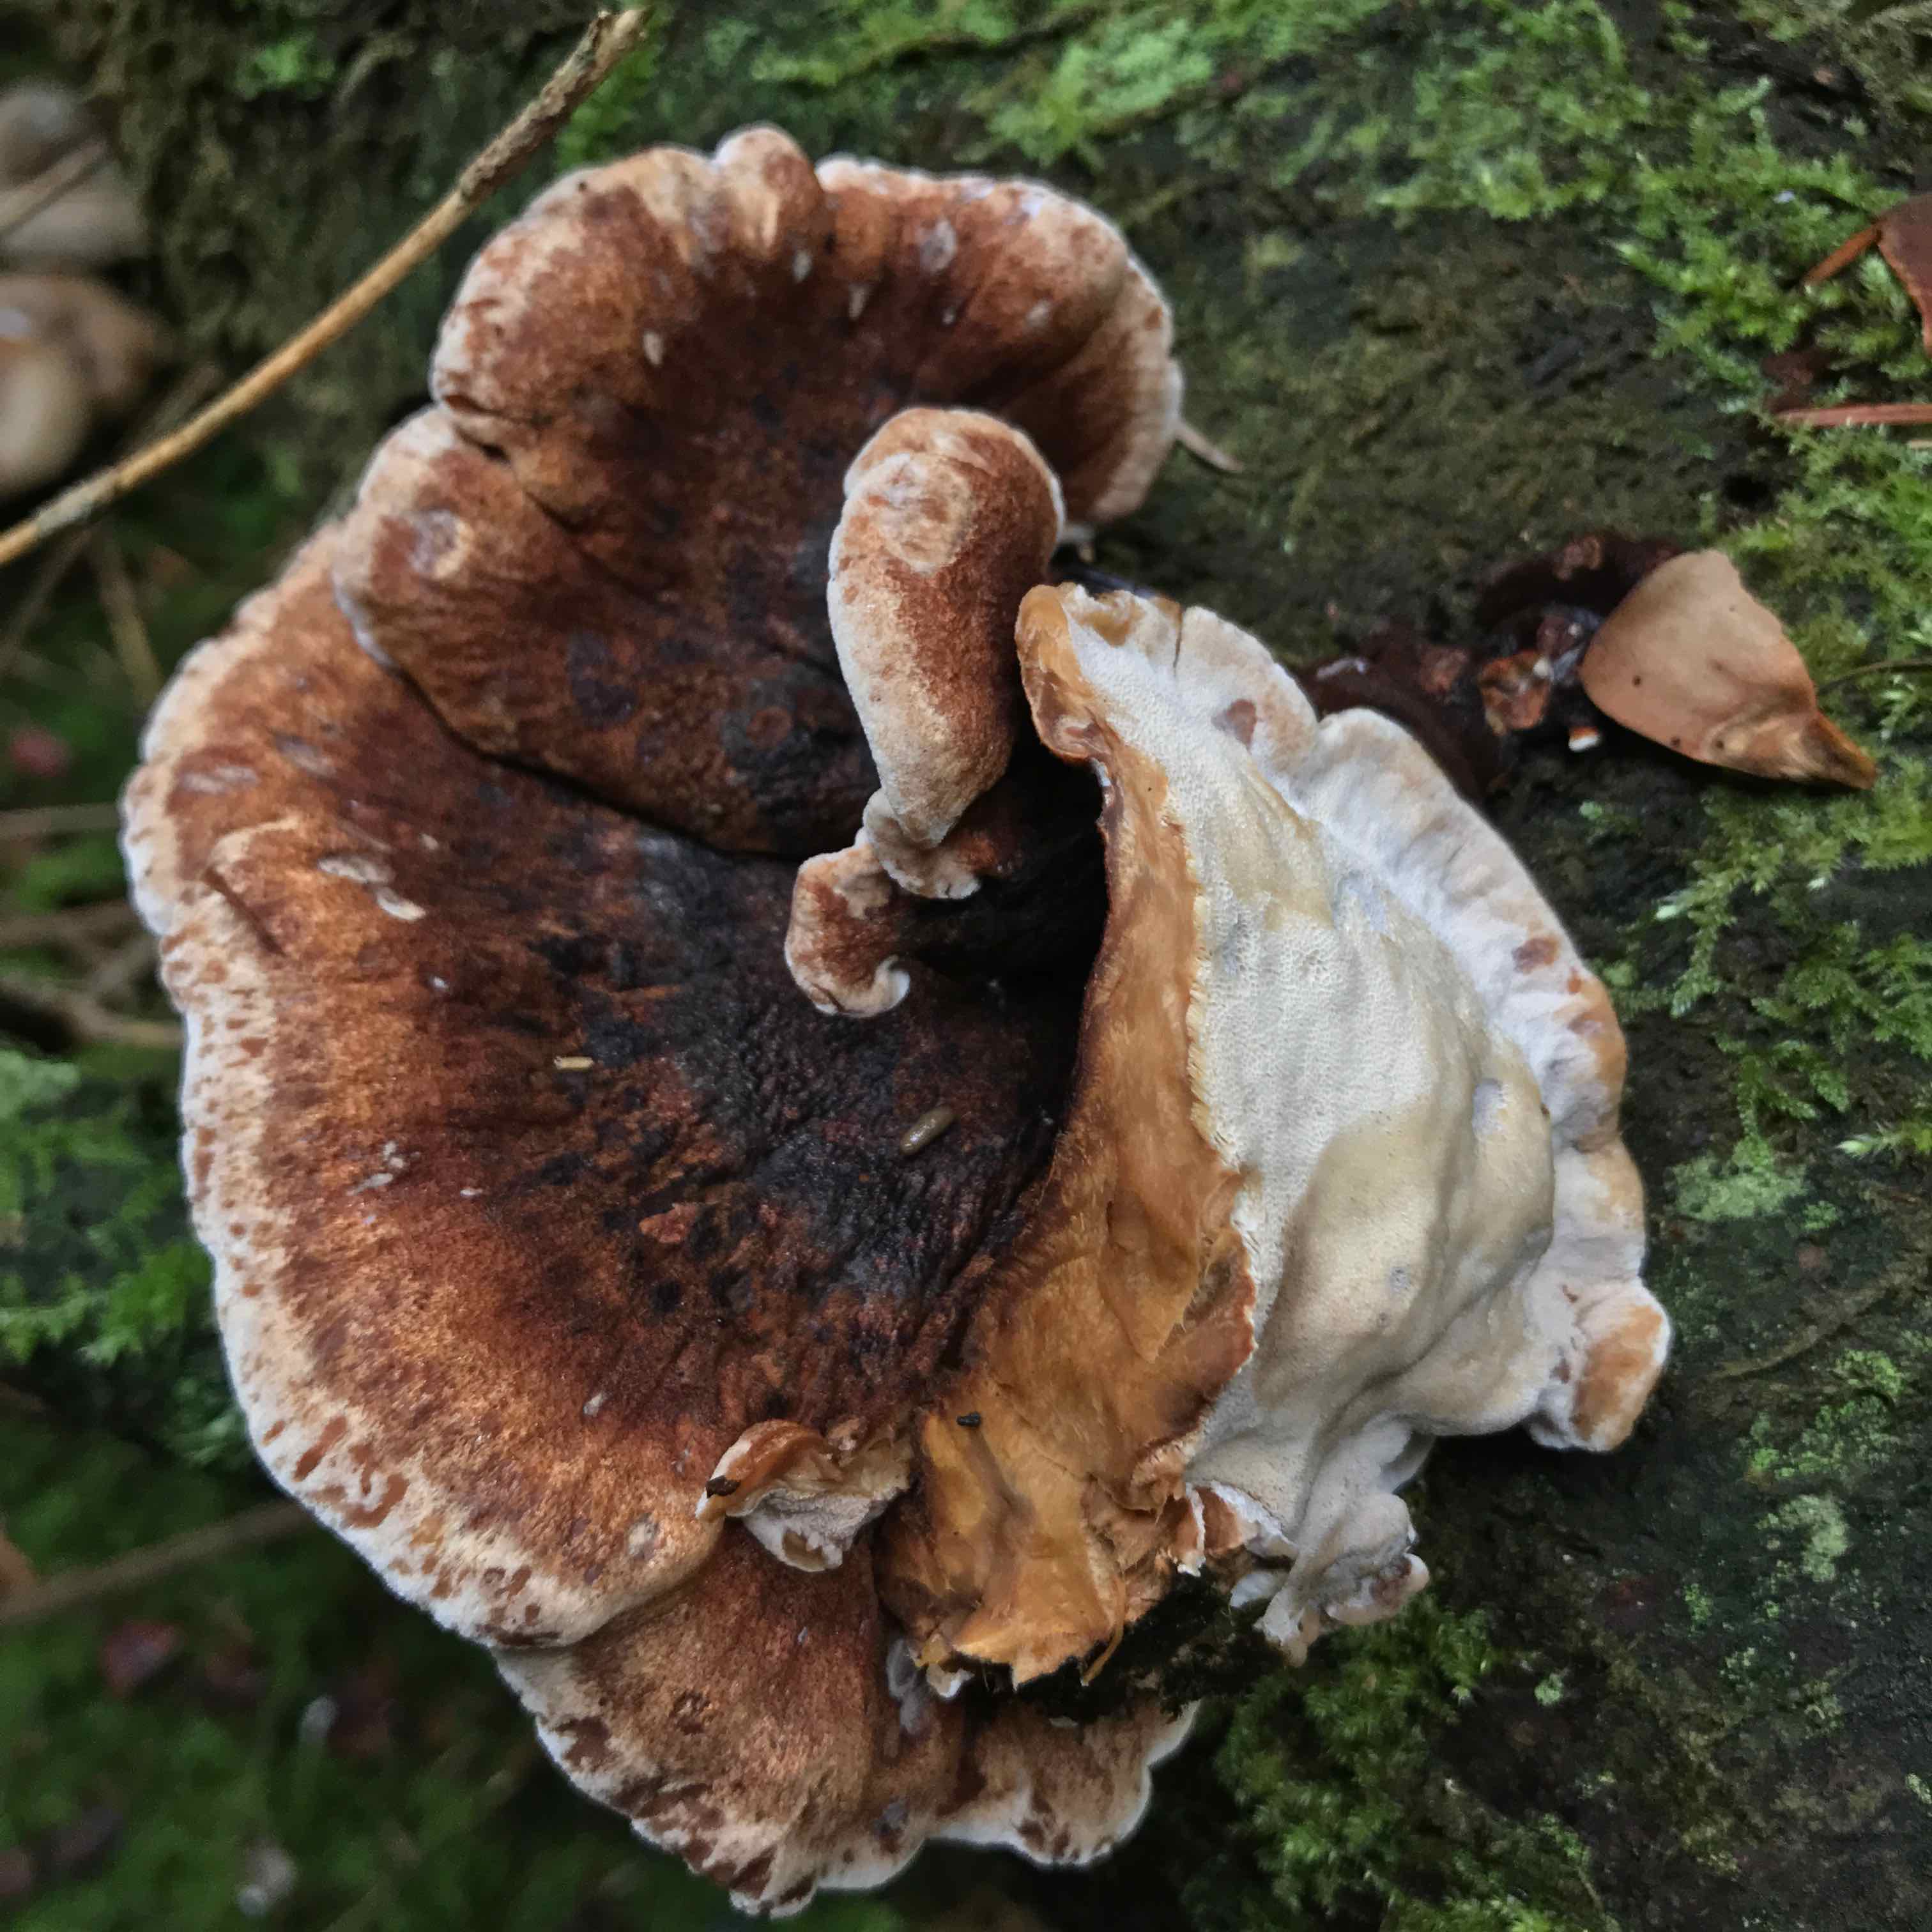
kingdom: Fungi
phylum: Basidiomycota
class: Agaricomycetes
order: Polyporales
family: Ischnodermataceae
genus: Ischnoderma
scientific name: Ischnoderma benzoinum
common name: gran-tjæreporesvamp
